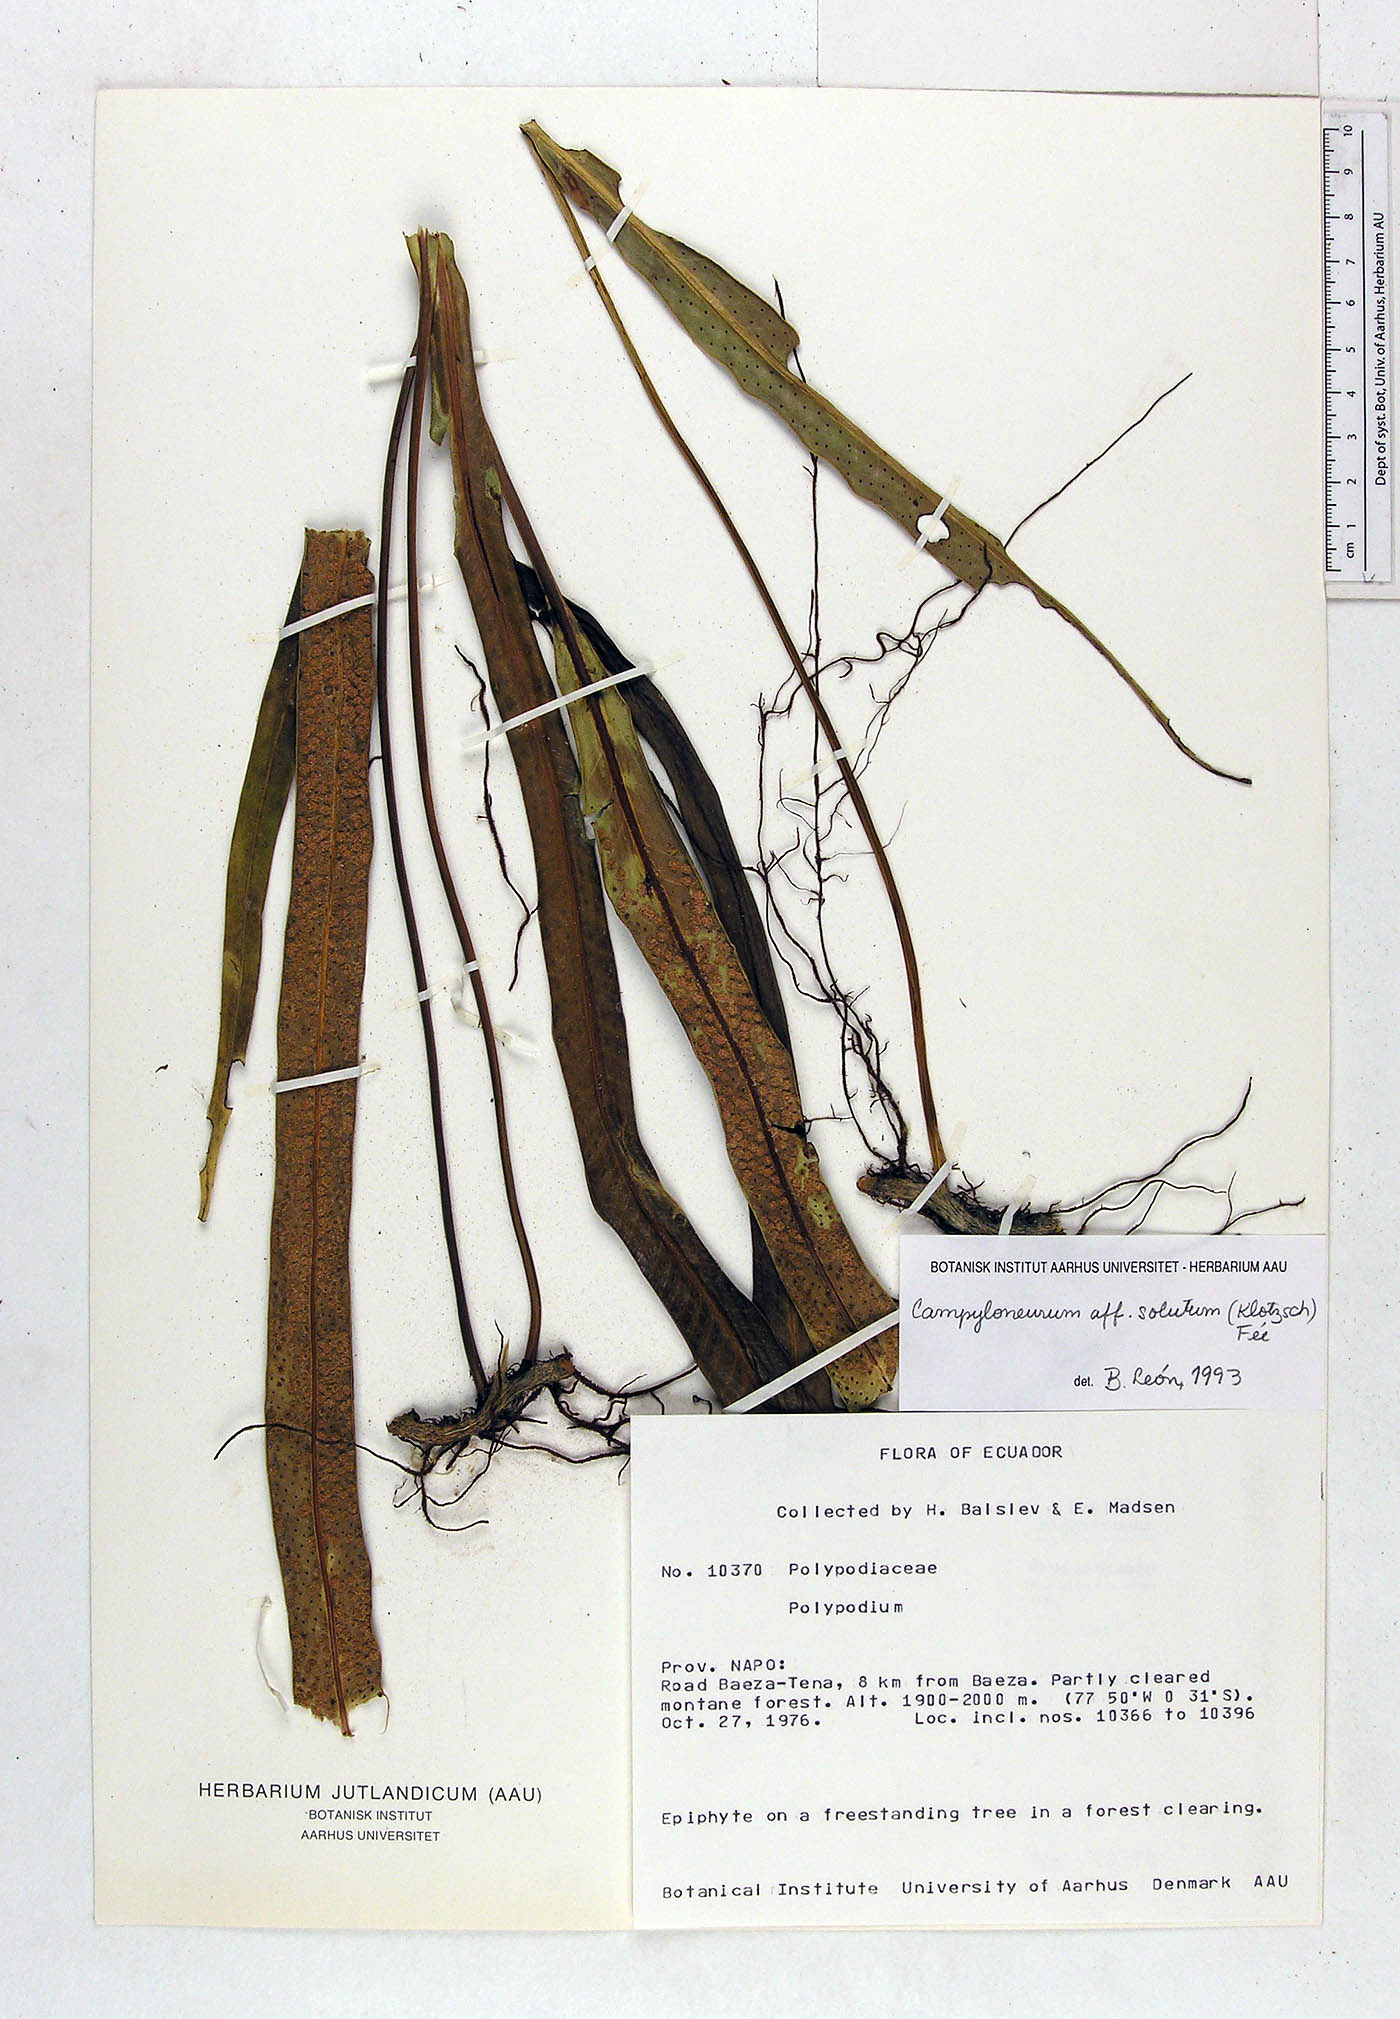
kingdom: Plantae
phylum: Tracheophyta
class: Polypodiopsida
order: Polypodiales
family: Polypodiaceae
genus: Campyloneurum
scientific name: Campyloneurum solutum
